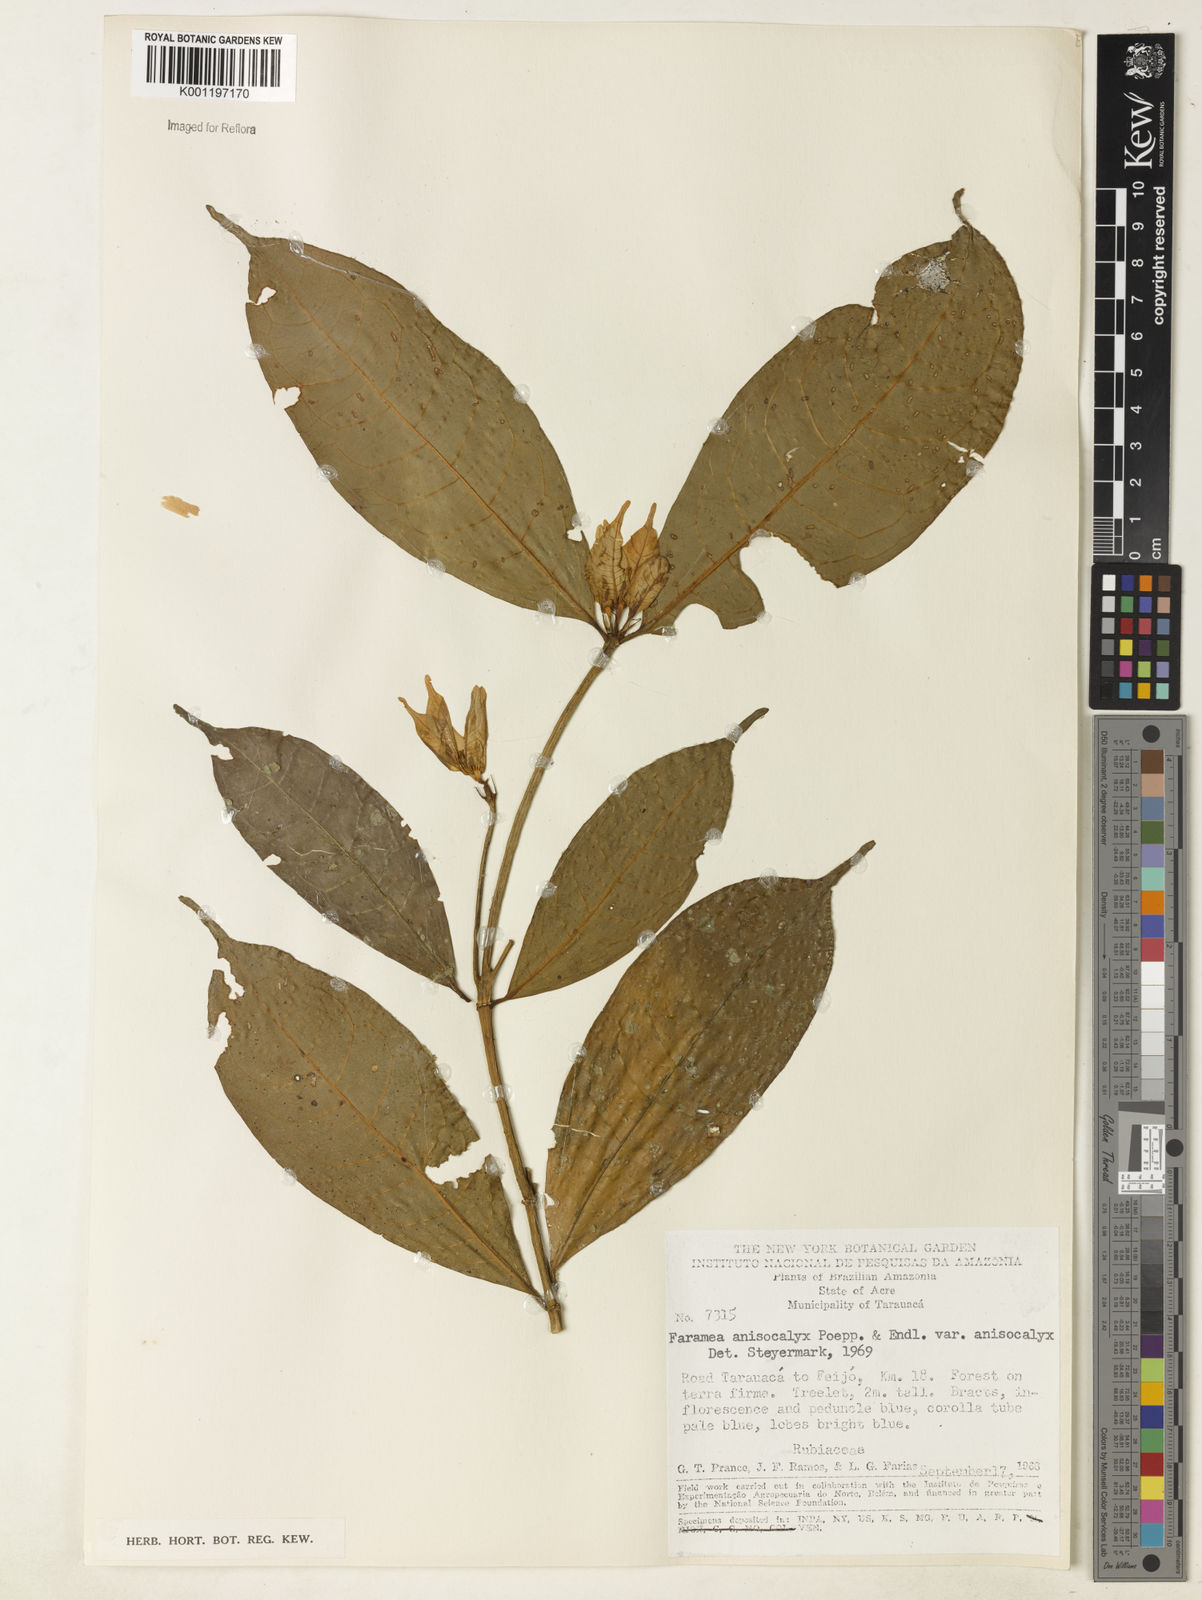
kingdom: Plantae
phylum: Tracheophyta
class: Magnoliopsida
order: Gentianales
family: Rubiaceae
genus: Faramea
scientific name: Faramea anisocalyx
